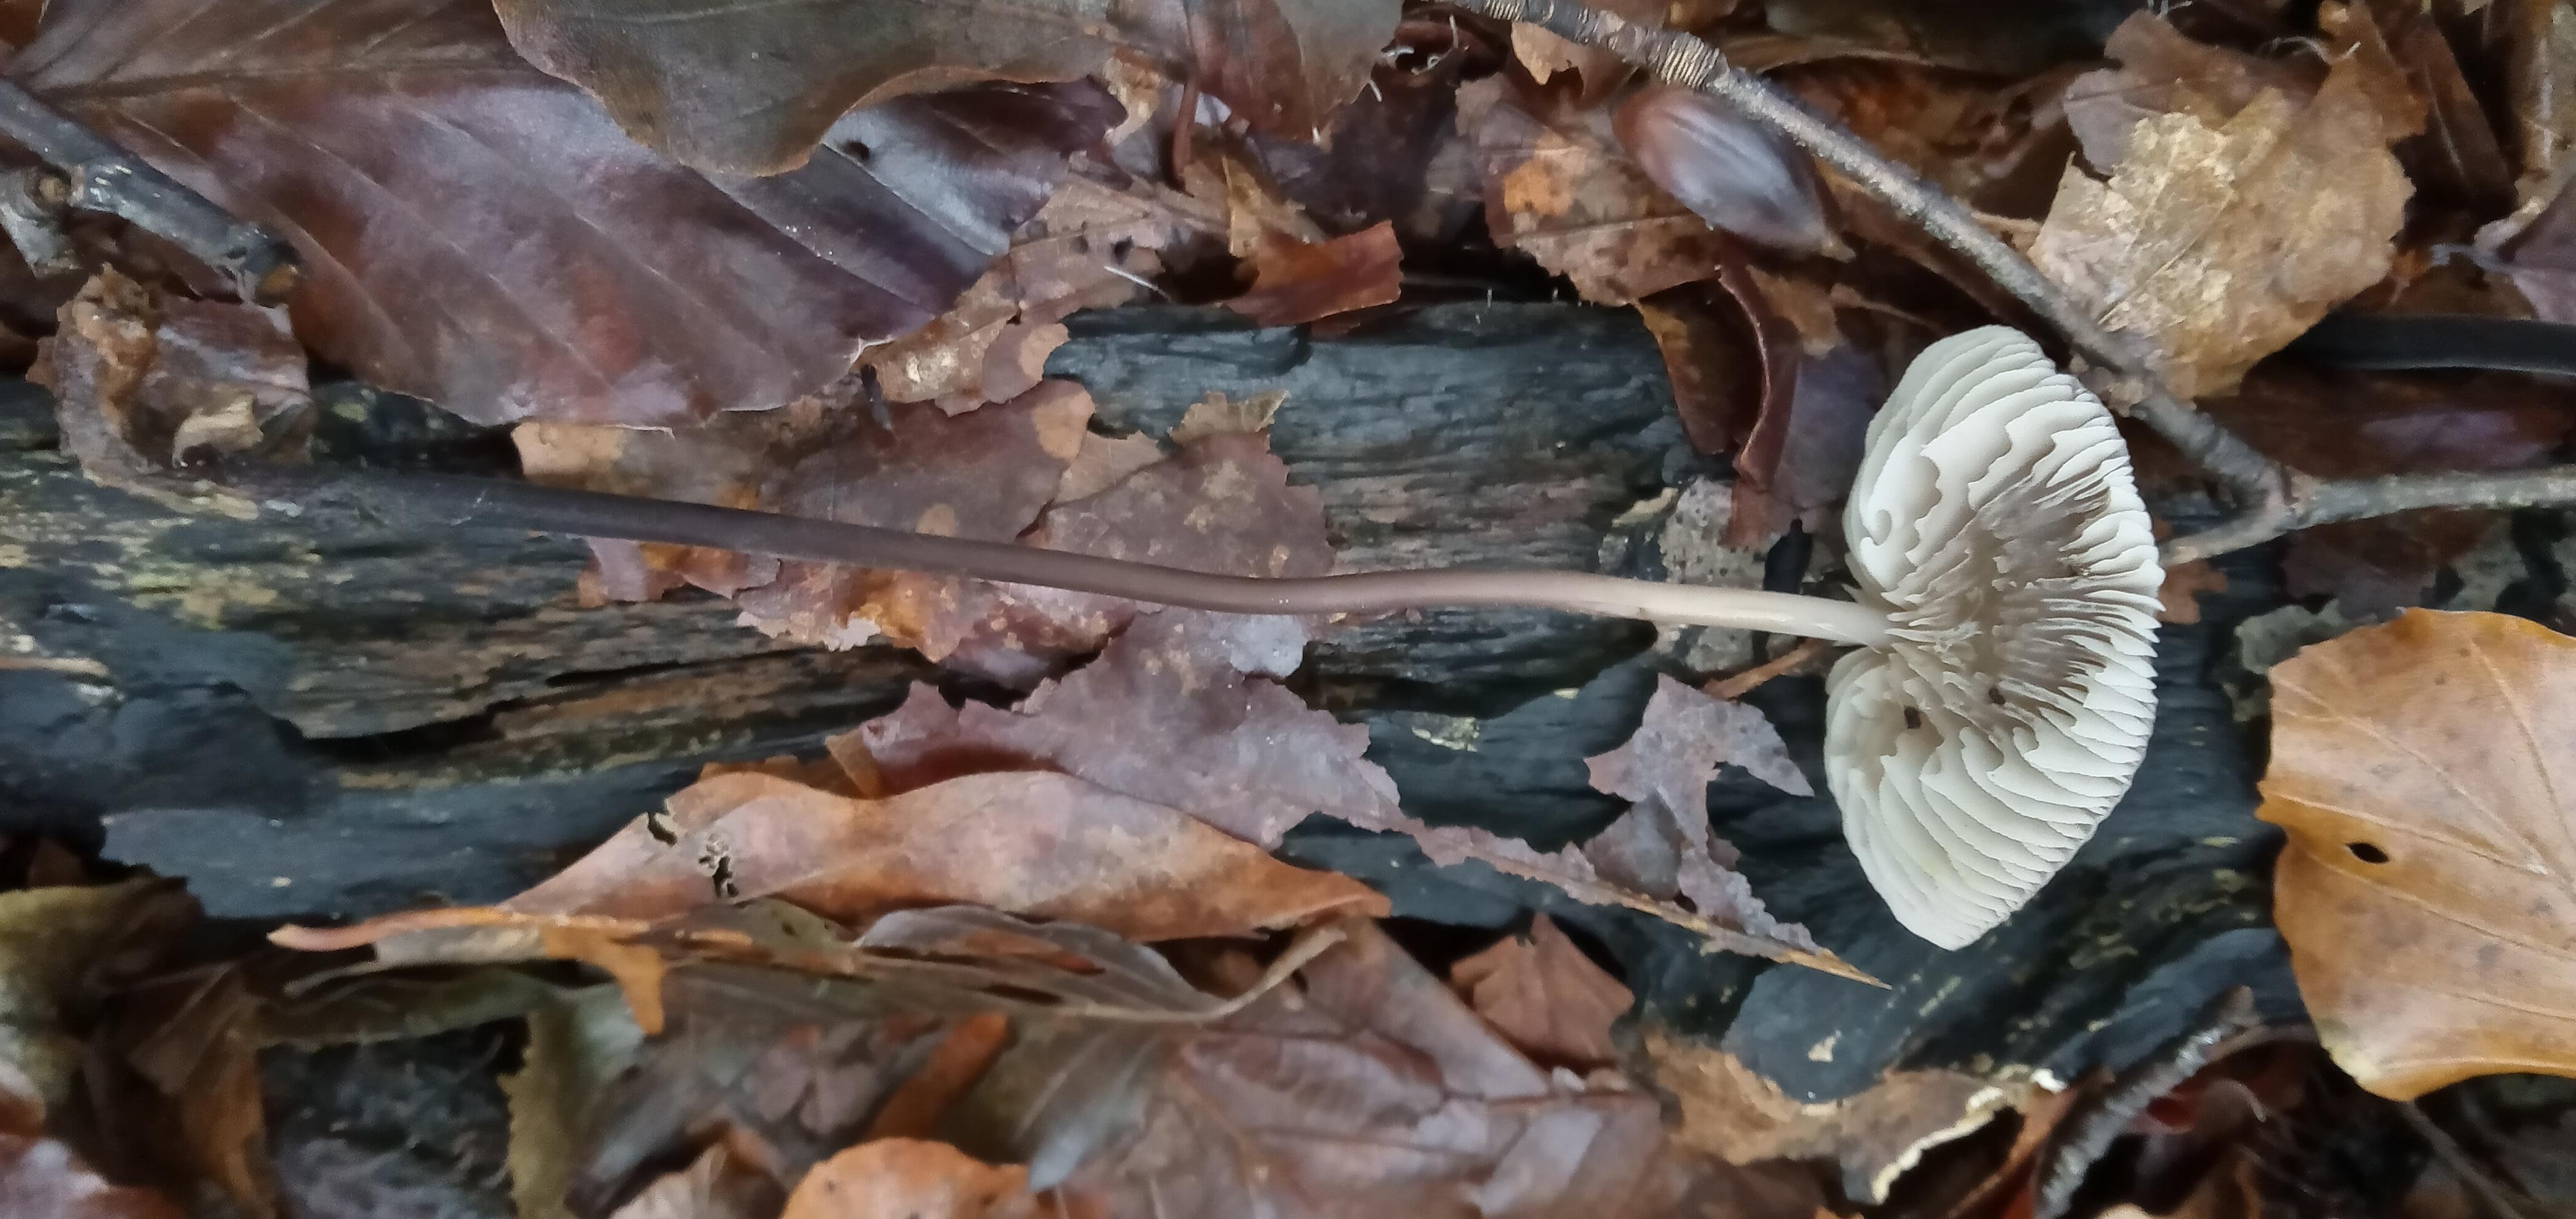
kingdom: Fungi
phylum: Basidiomycota
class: Agaricomycetes
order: Agaricales
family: Omphalotaceae
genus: Mycetinis
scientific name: Mycetinis alliaceus
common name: stor løghat
